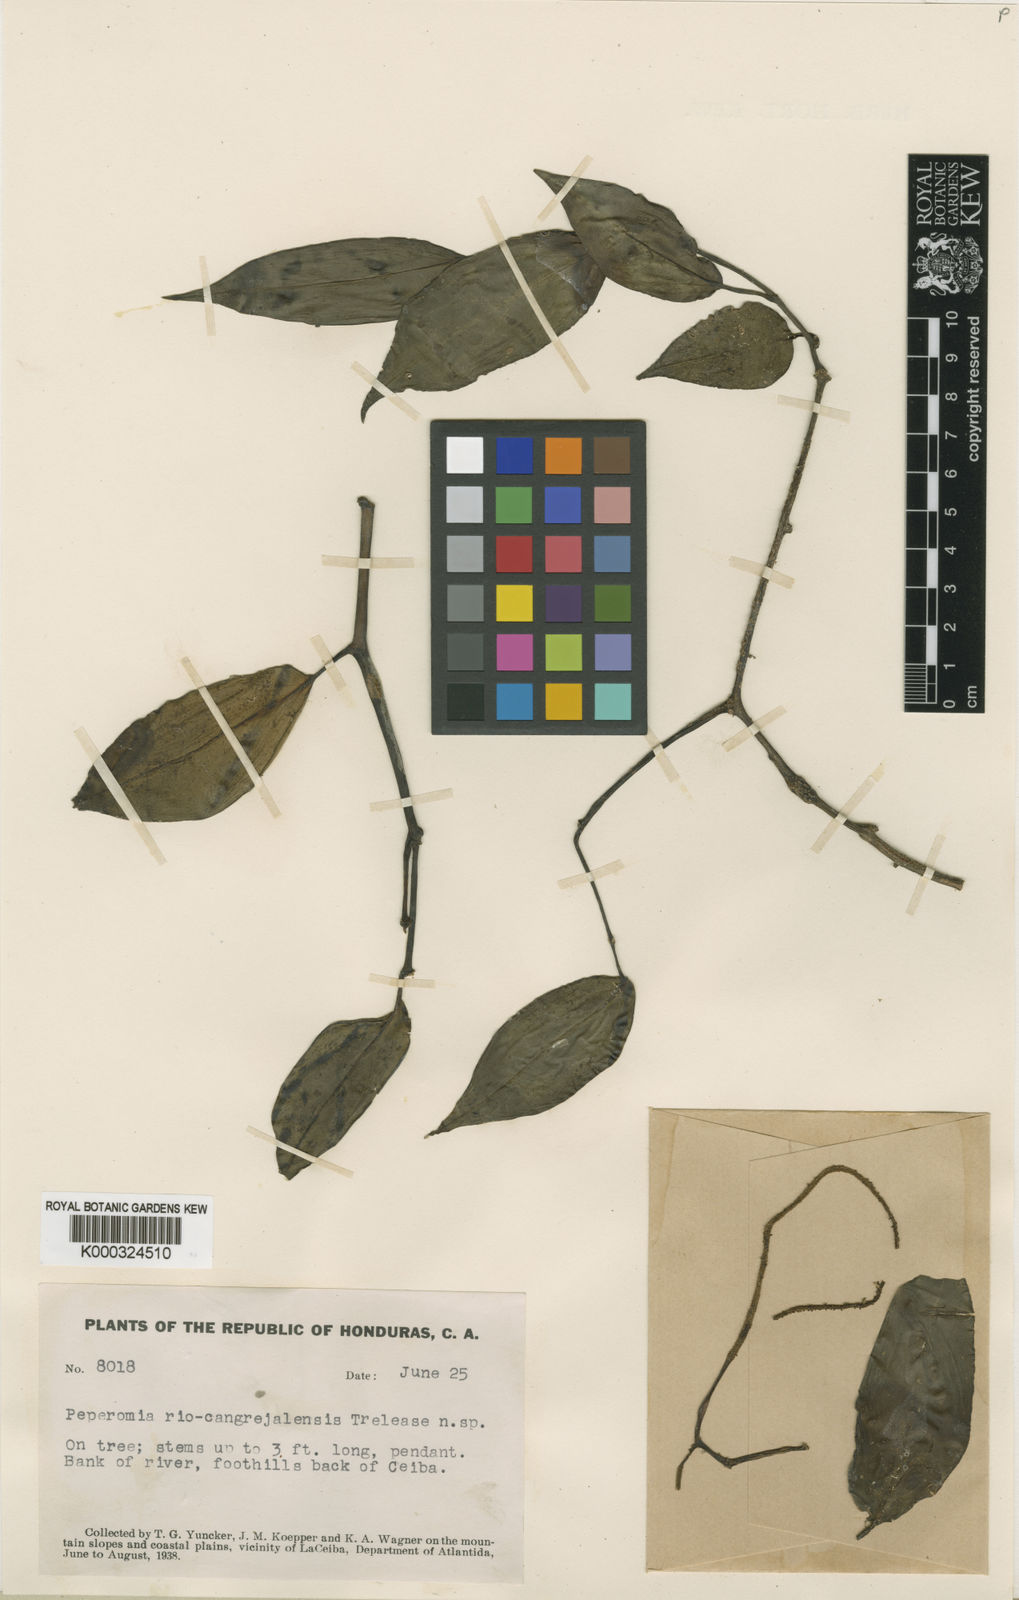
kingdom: Plantae
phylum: Tracheophyta
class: Magnoliopsida
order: Piperales
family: Piperaceae
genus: Peperomia
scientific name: Peperomia
